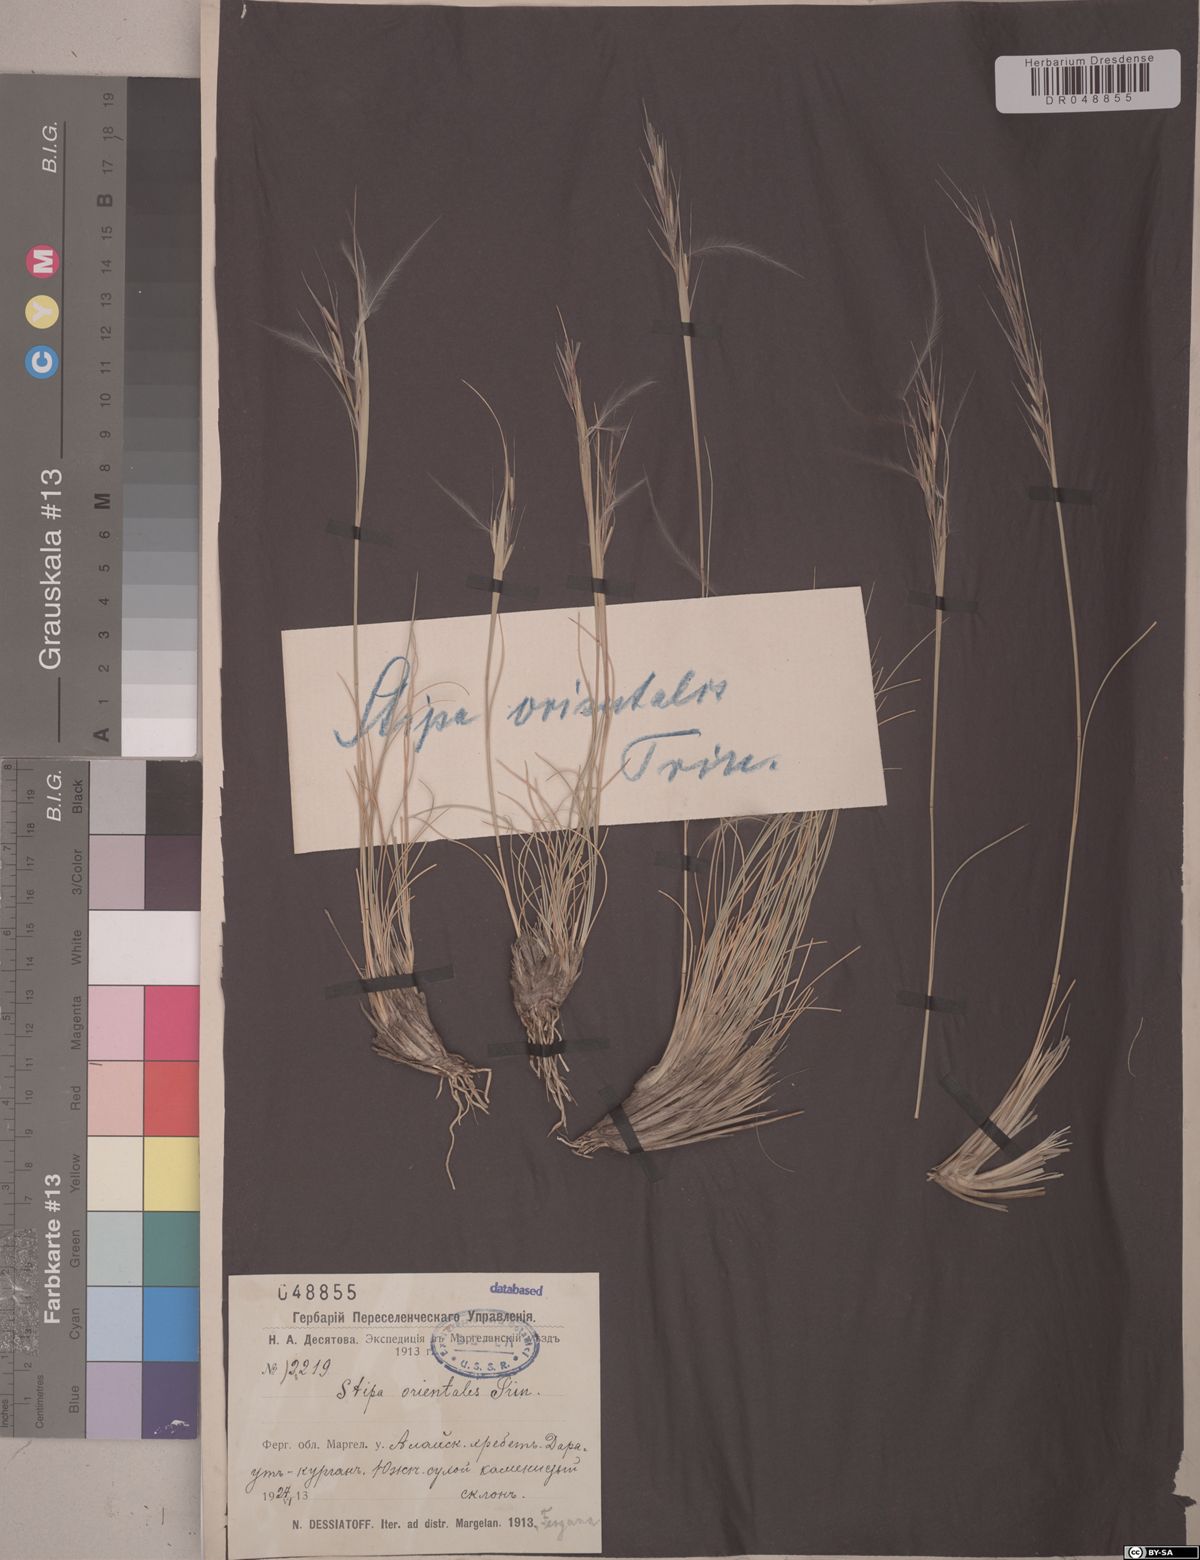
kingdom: Plantae
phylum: Tracheophyta
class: Liliopsida
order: Poales
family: Poaceae
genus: Stipa
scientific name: Stipa orientalis
